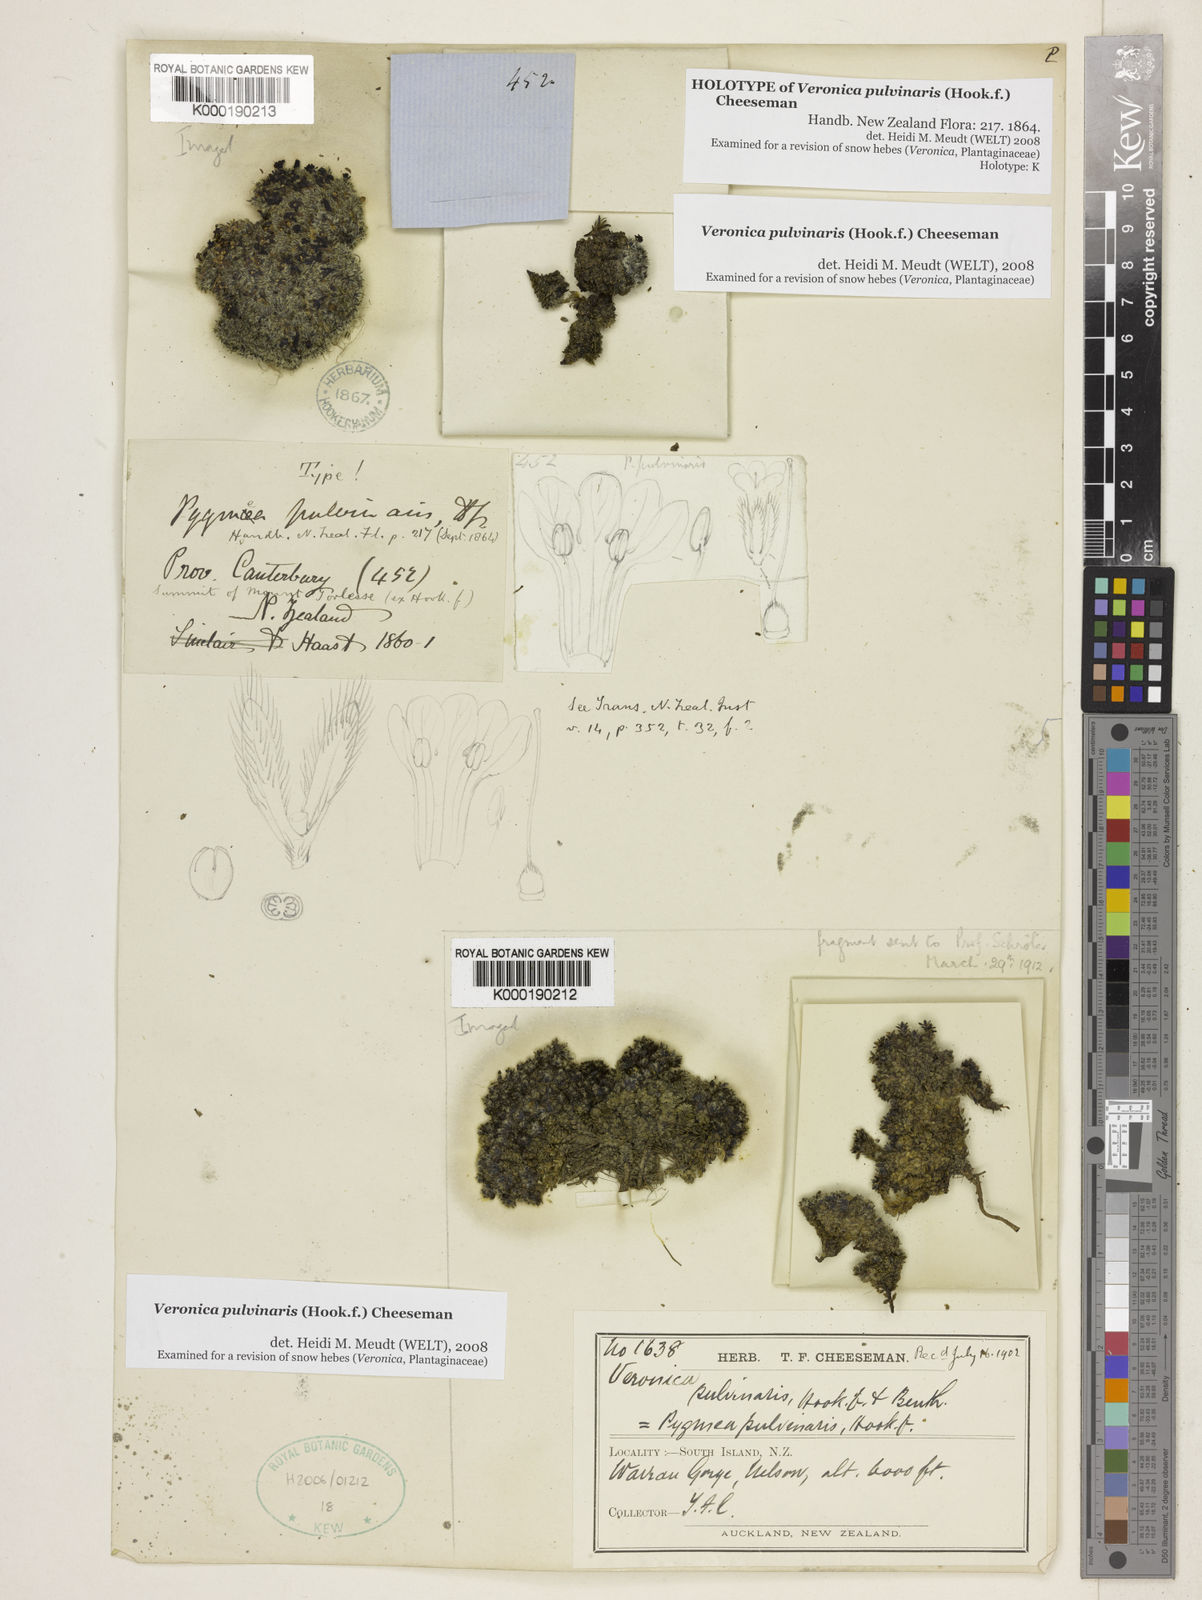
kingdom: Plantae
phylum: Tracheophyta
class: Magnoliopsida
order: Lamiales
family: Plantaginaceae
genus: Veronica
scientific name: Veronica pulvinaris
